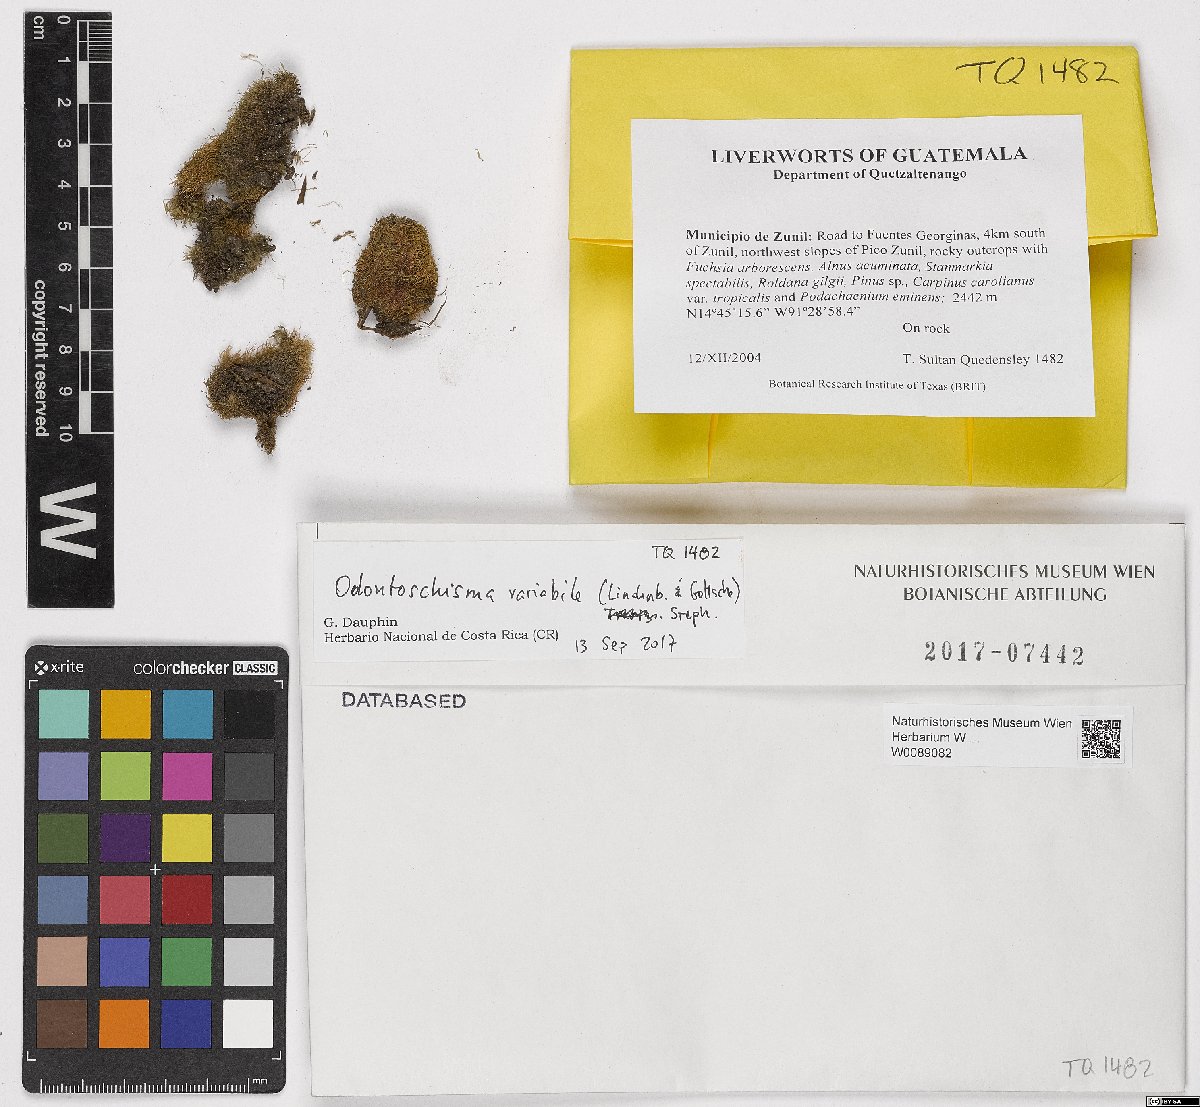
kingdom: Plantae
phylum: Marchantiophyta
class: Jungermanniopsida
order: Jungermanniales
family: Cephaloziaceae
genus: Odontoschisma
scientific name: Odontoschisma variabile
